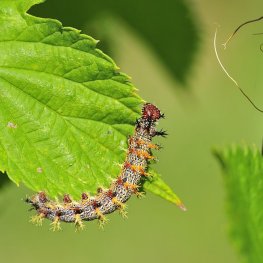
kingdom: Animalia
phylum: Arthropoda
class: Insecta
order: Lepidoptera
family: Nymphalidae
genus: Polygonia
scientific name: Polygonia interrogationis
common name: Question Mark
